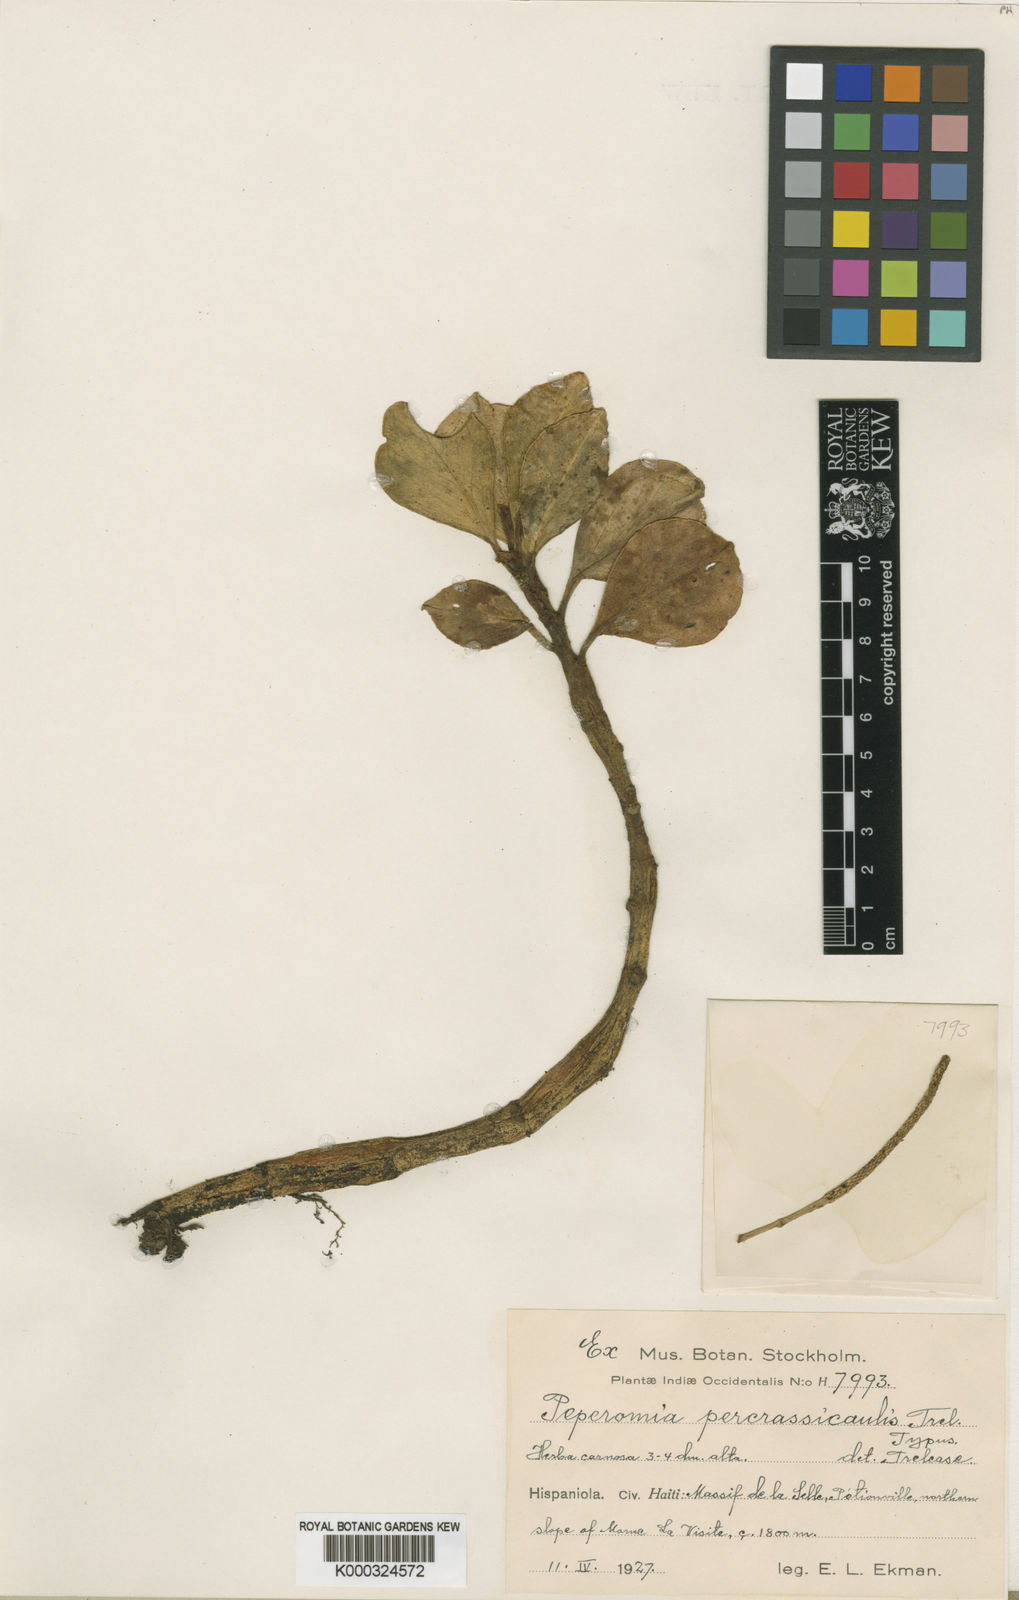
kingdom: Plantae
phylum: Tracheophyta
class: Magnoliopsida
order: Piperales
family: Piperaceae
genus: Peperomia
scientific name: Peperomia crassicaulis
